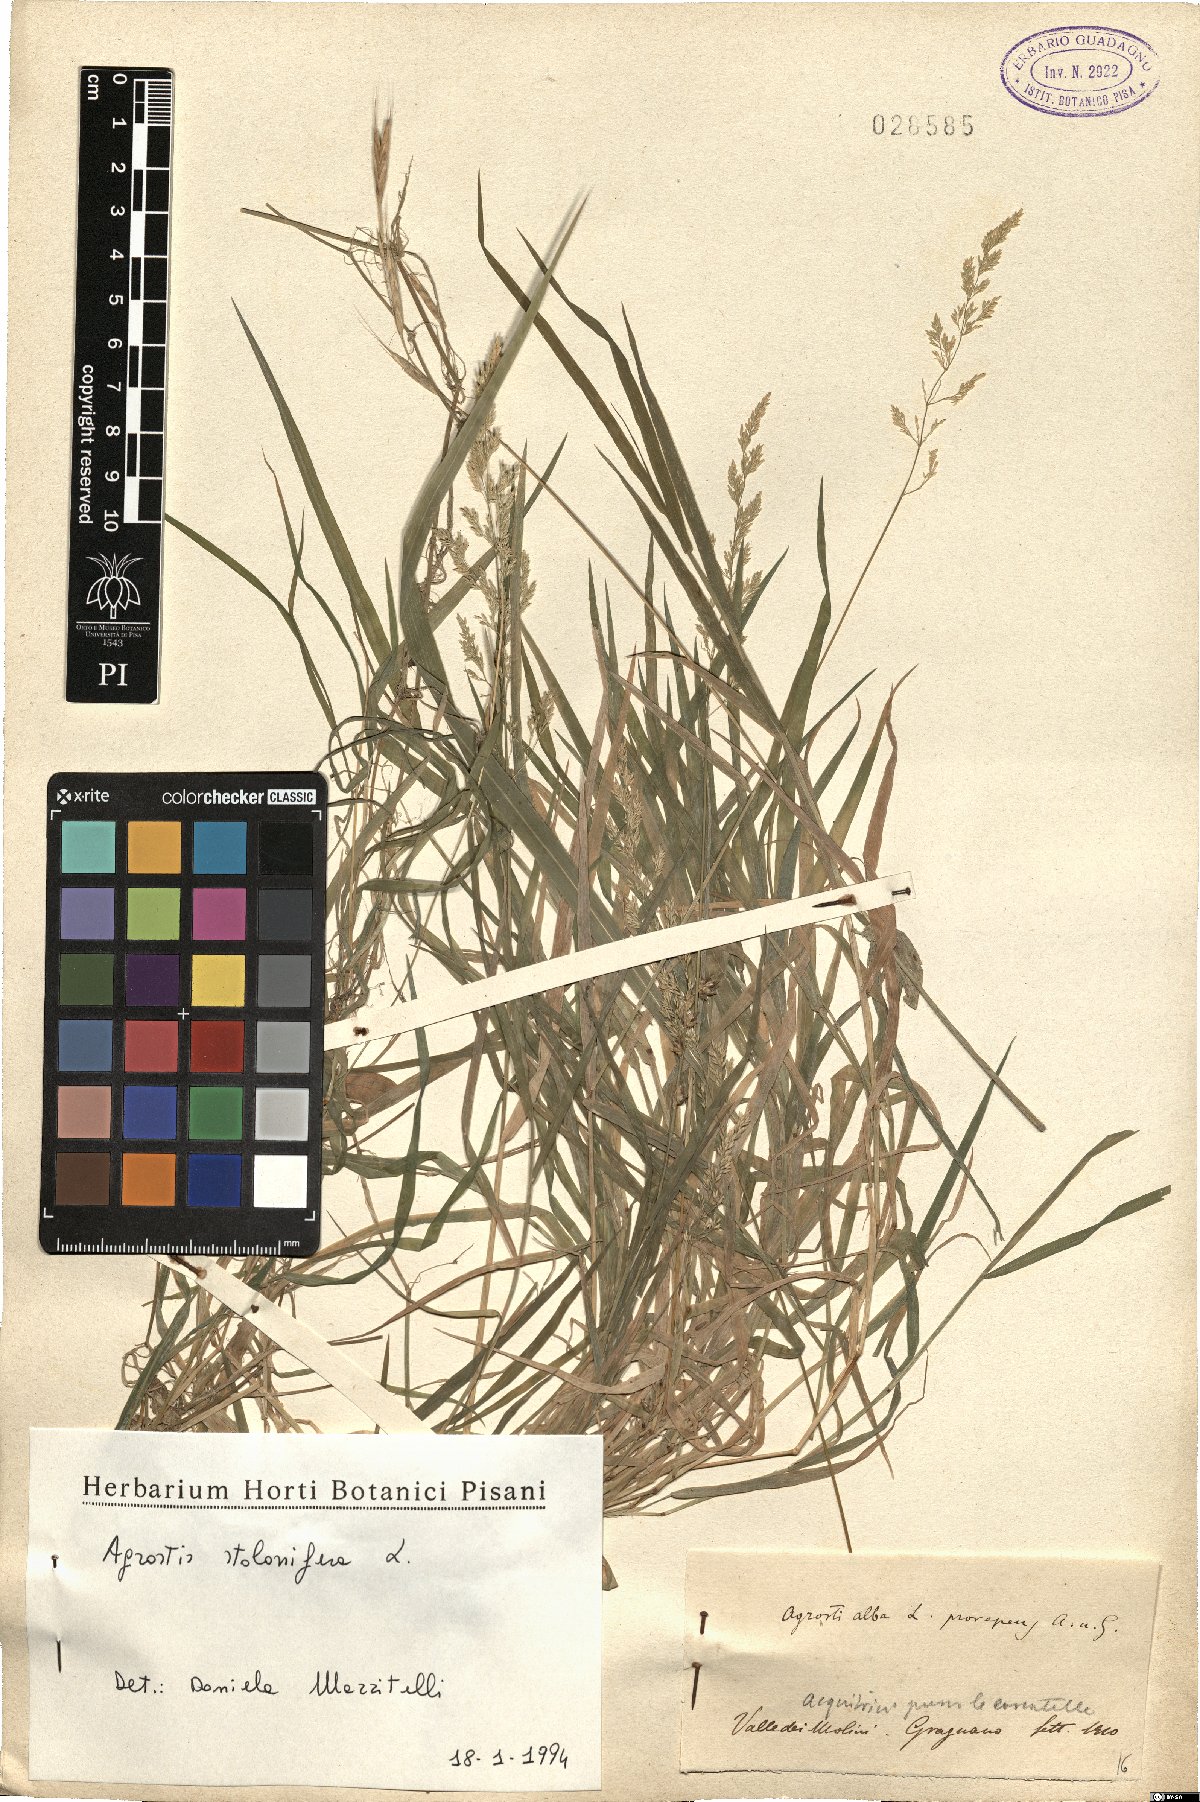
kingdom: Plantae
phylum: Tracheophyta
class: Liliopsida
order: Poales
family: Poaceae
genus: Agrostis
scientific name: Agrostis stolonifera
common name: Creeping bentgrass
